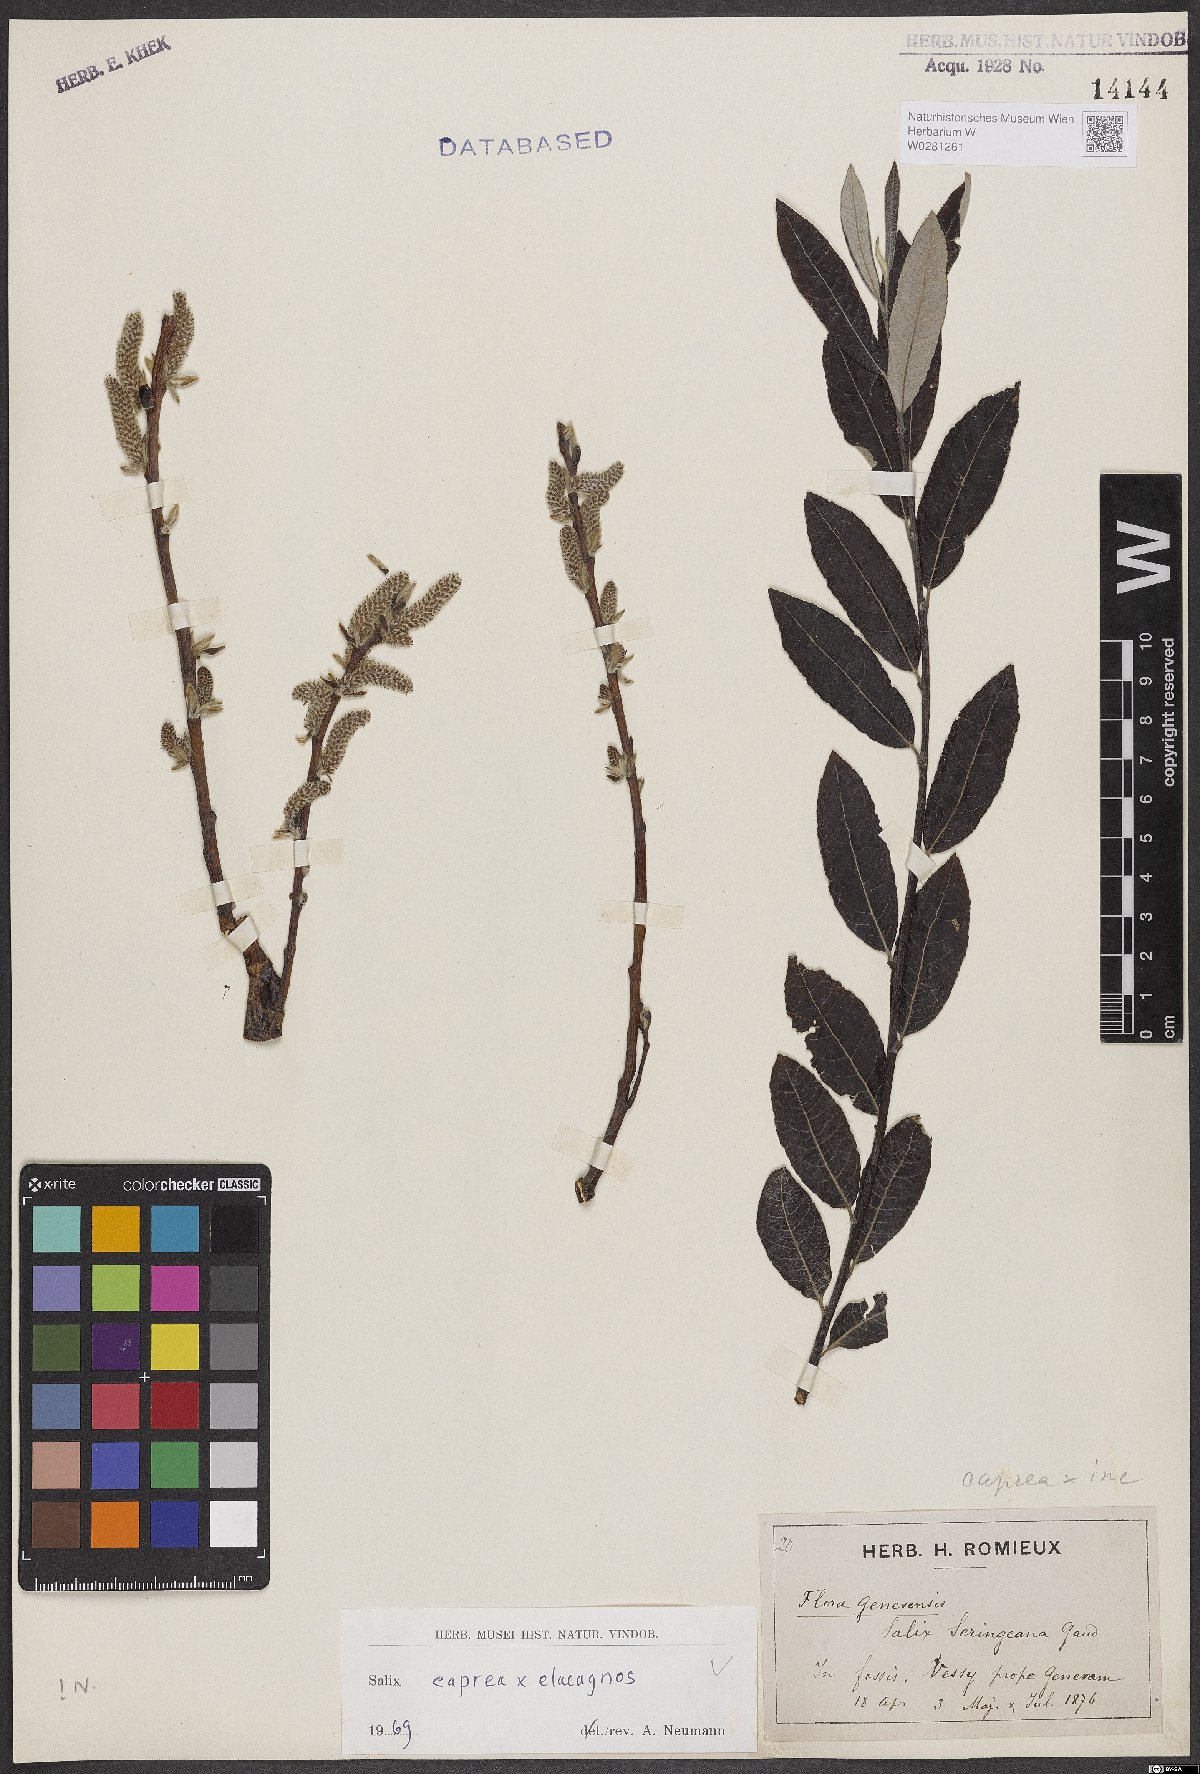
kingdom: Plantae
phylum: Tracheophyta
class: Magnoliopsida
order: Malpighiales
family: Salicaceae
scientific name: Salicaceae
